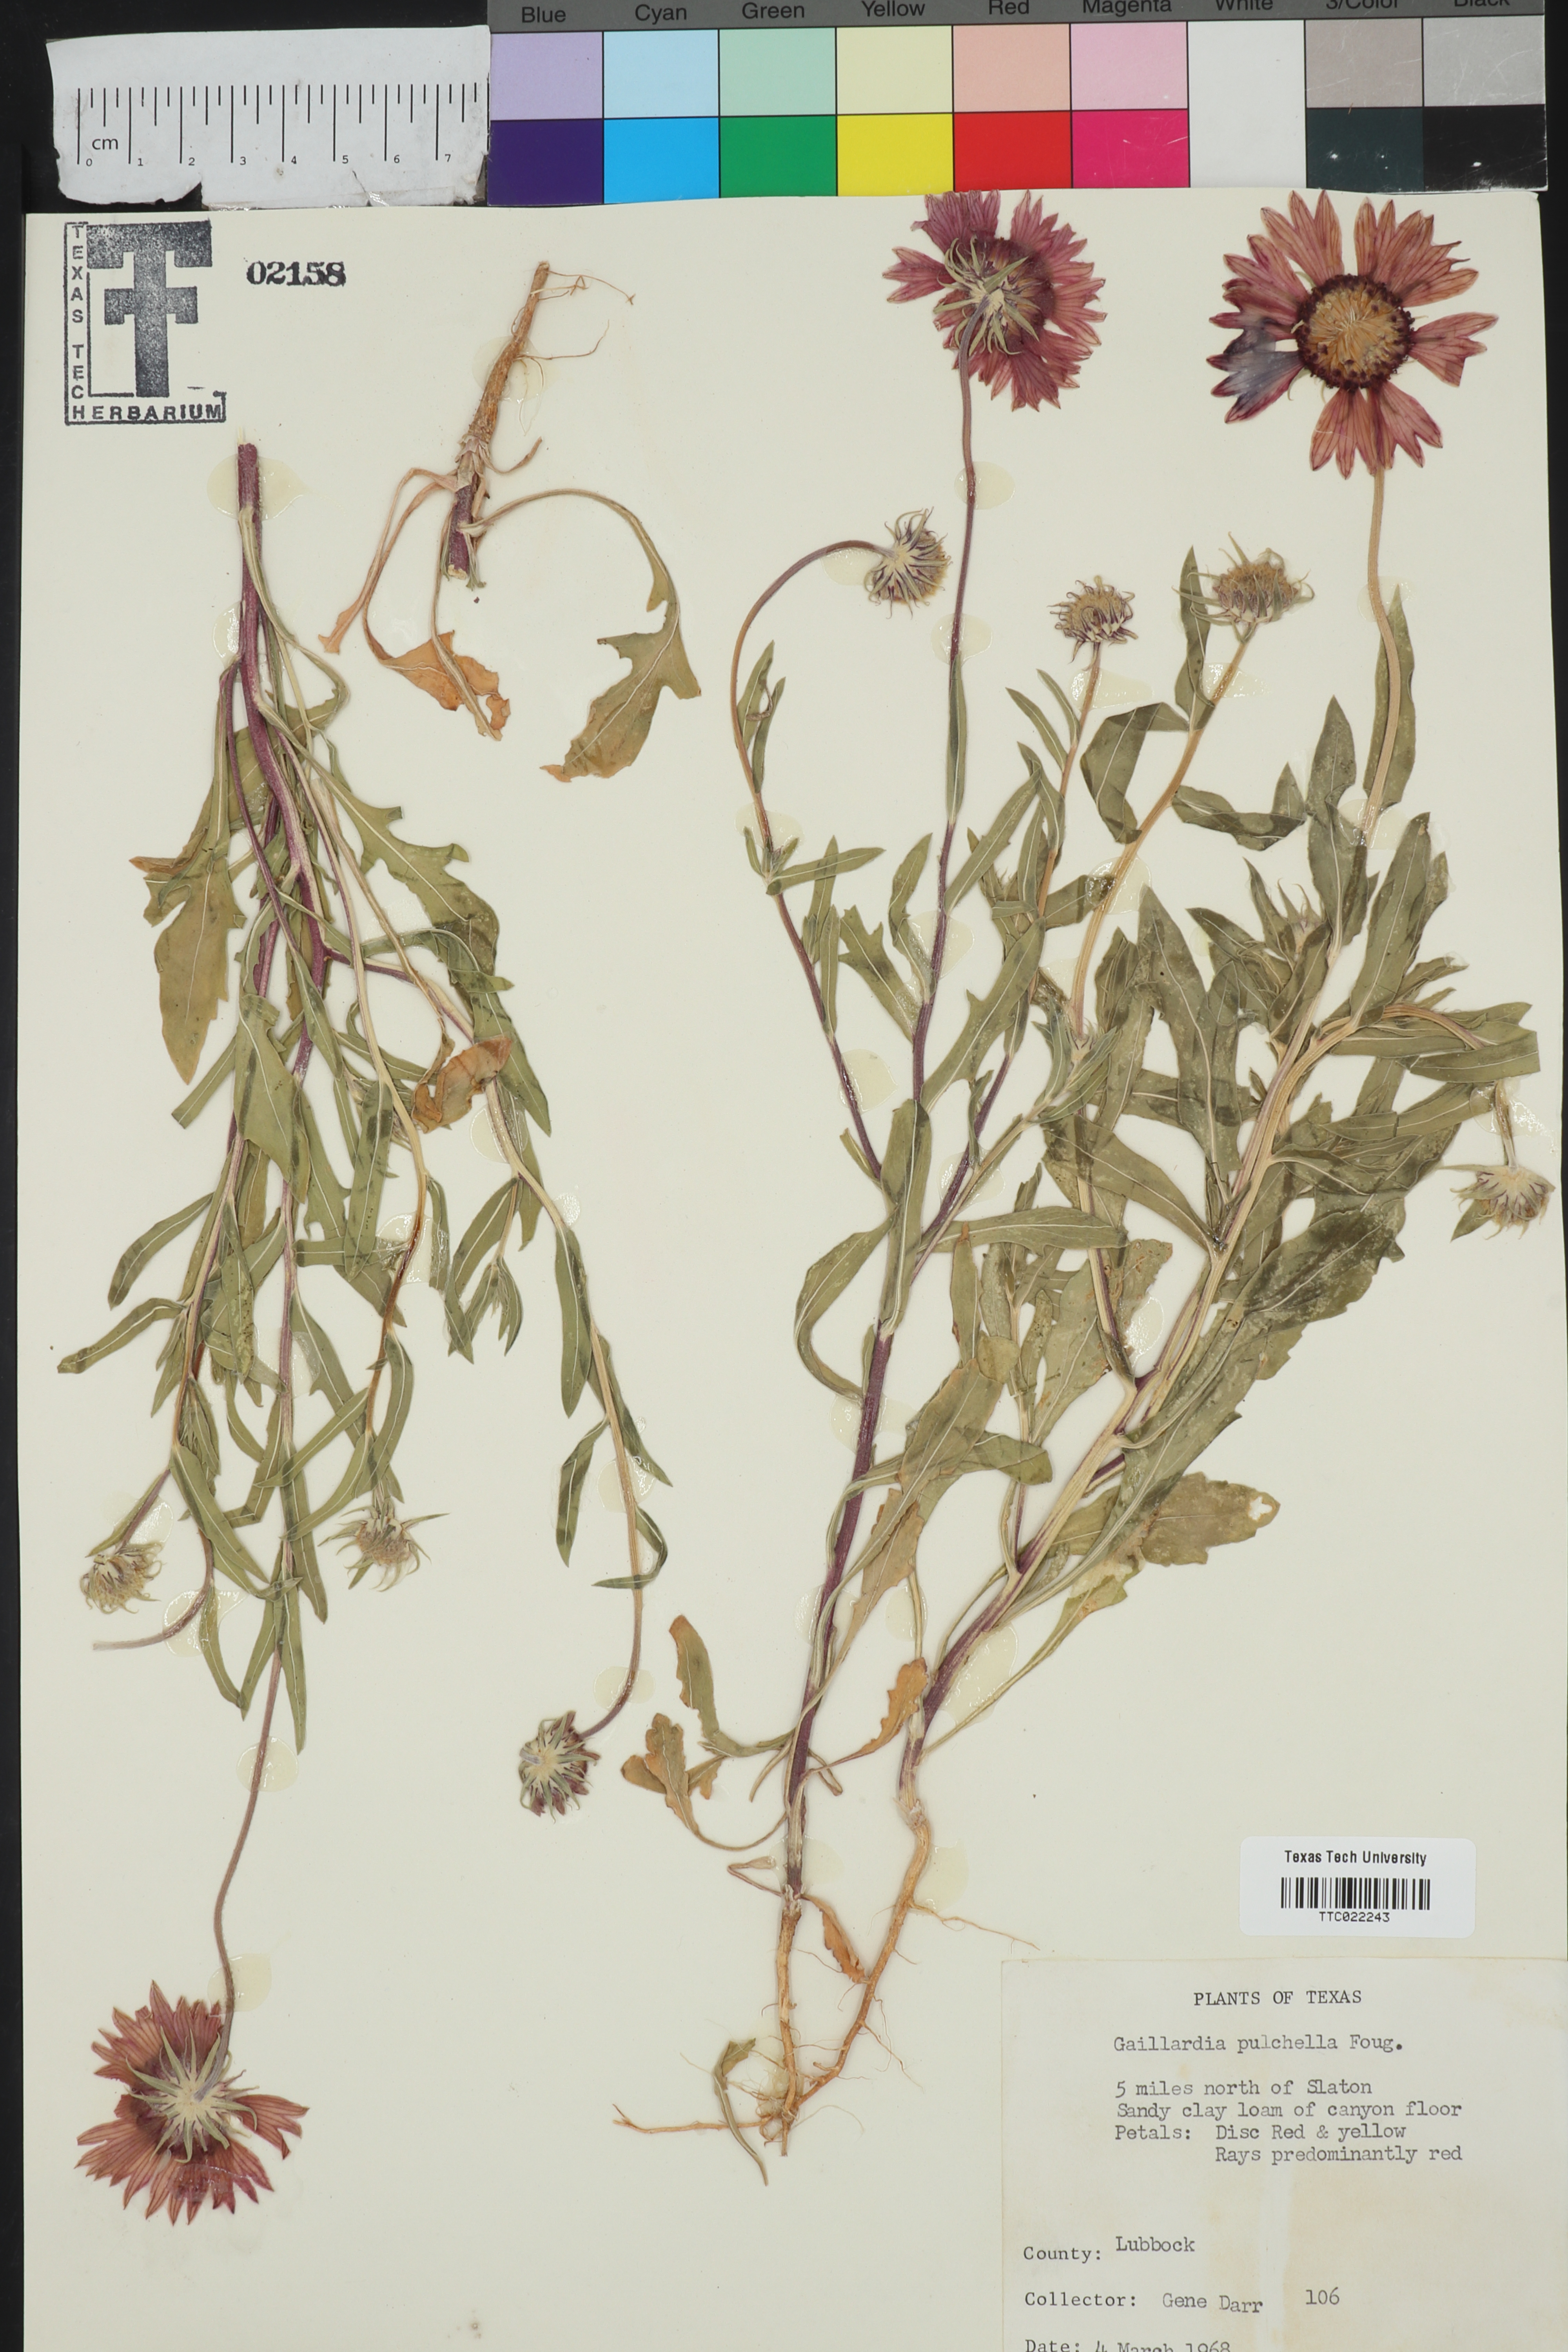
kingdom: Plantae
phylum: Tracheophyta
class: Magnoliopsida
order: Asterales
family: Asteraceae
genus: Gaillardia
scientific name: Gaillardia pulchella
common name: Firewheel
